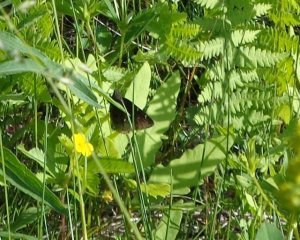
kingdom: Animalia
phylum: Arthropoda
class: Insecta
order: Lepidoptera
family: Hesperiidae
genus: Autochton
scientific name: Autochton
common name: Northern Cloudywing
